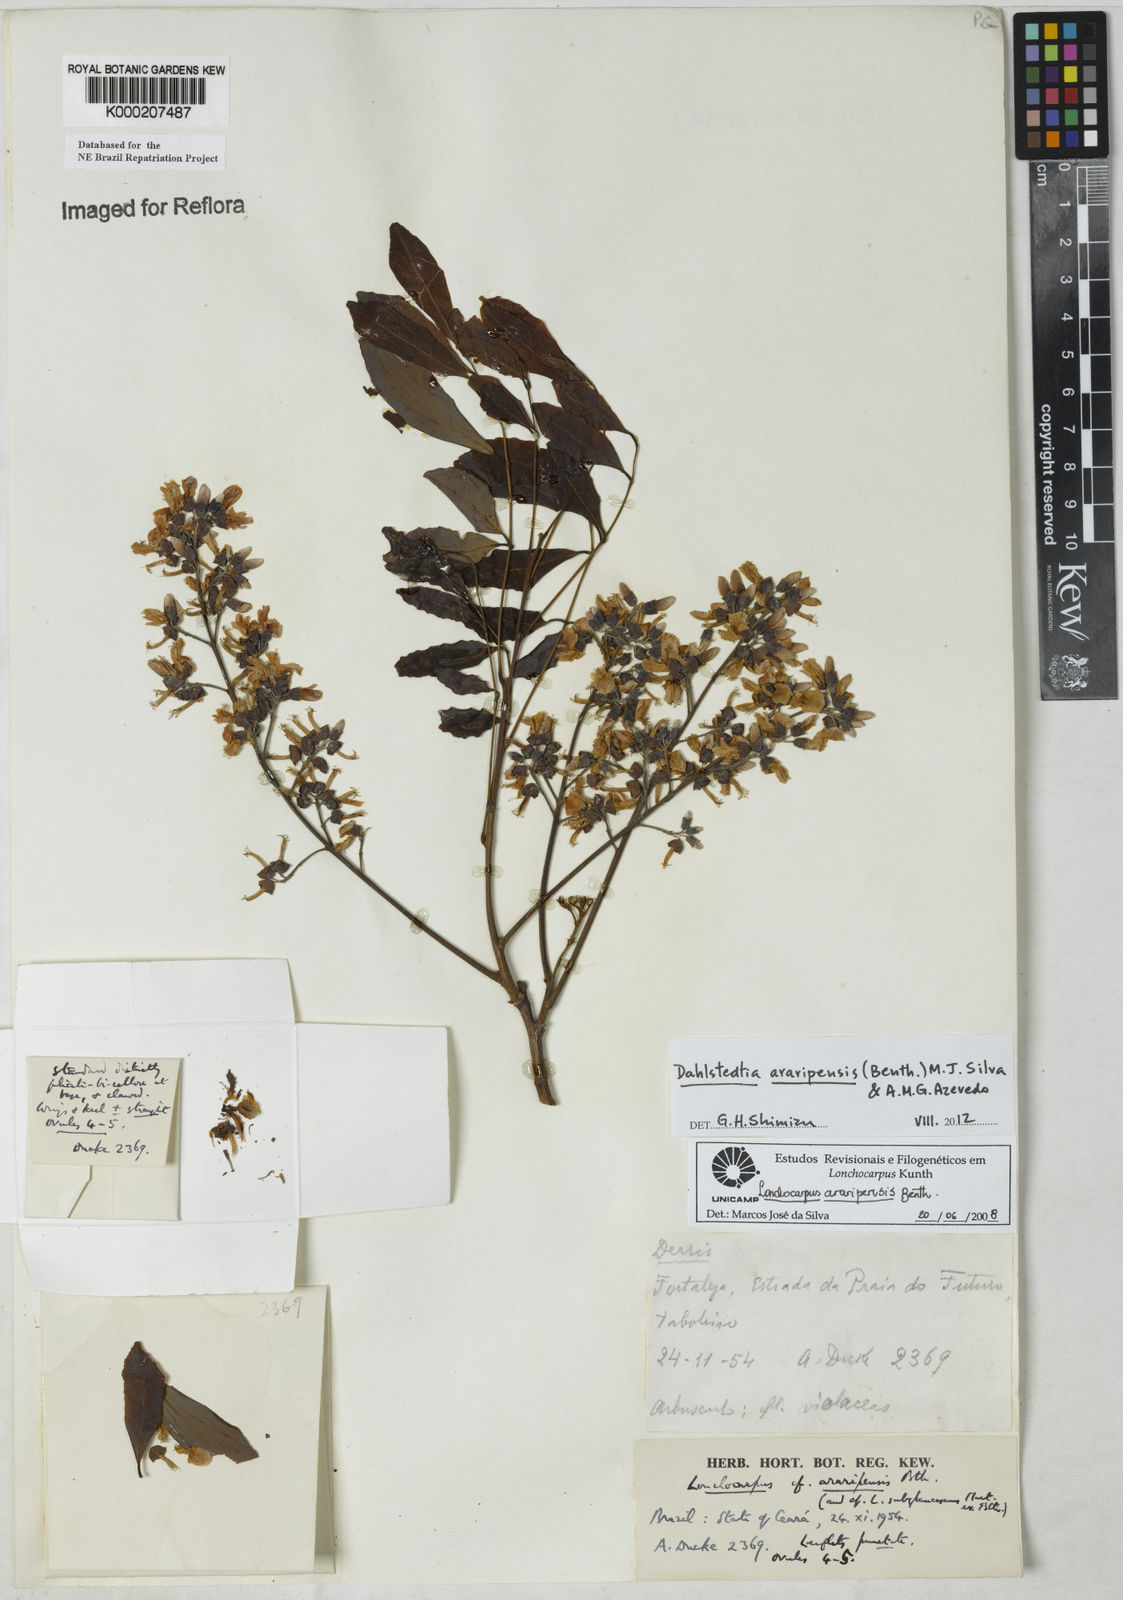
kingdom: Plantae
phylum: Tracheophyta
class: Magnoliopsida
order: Fabales
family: Fabaceae
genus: Dahlstedtia
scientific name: Dahlstedtia araripensis
